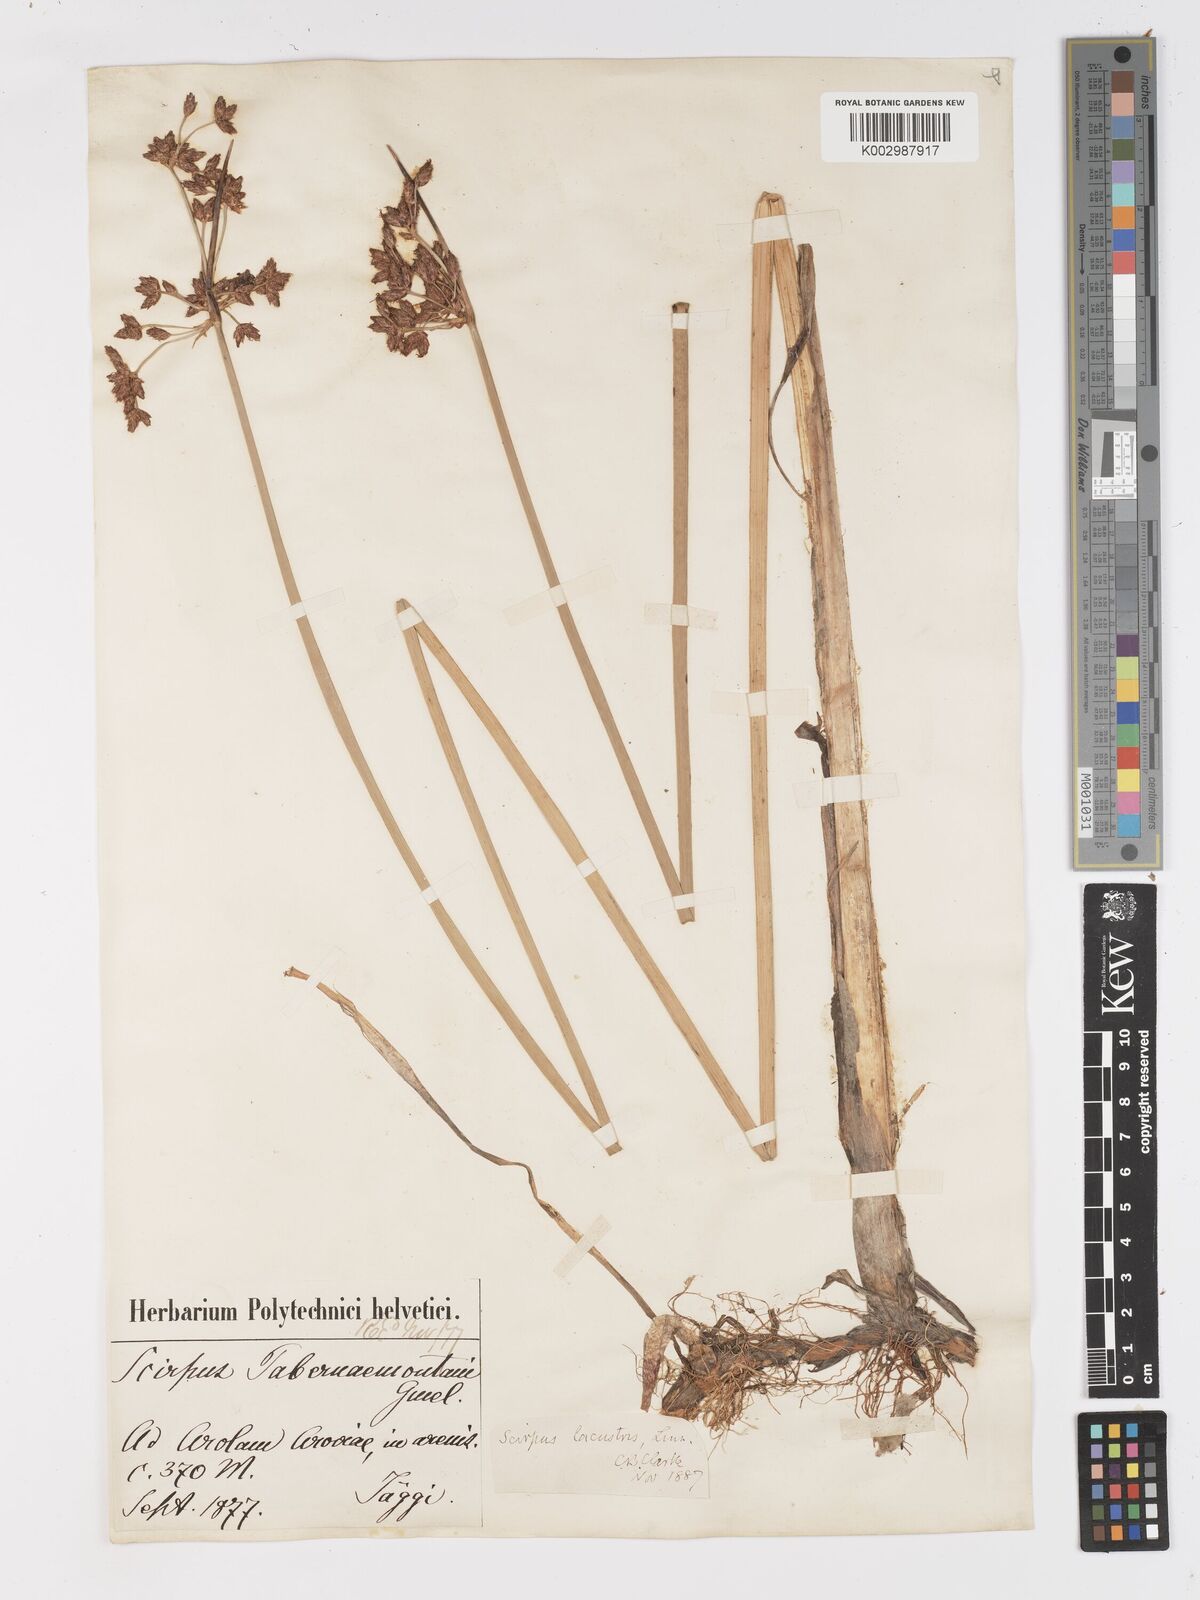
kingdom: Plantae
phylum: Tracheophyta
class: Liliopsida
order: Poales
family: Cyperaceae
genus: Schoenoplectus
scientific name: Schoenoplectus tabernaemontani
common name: Grey club-rush
